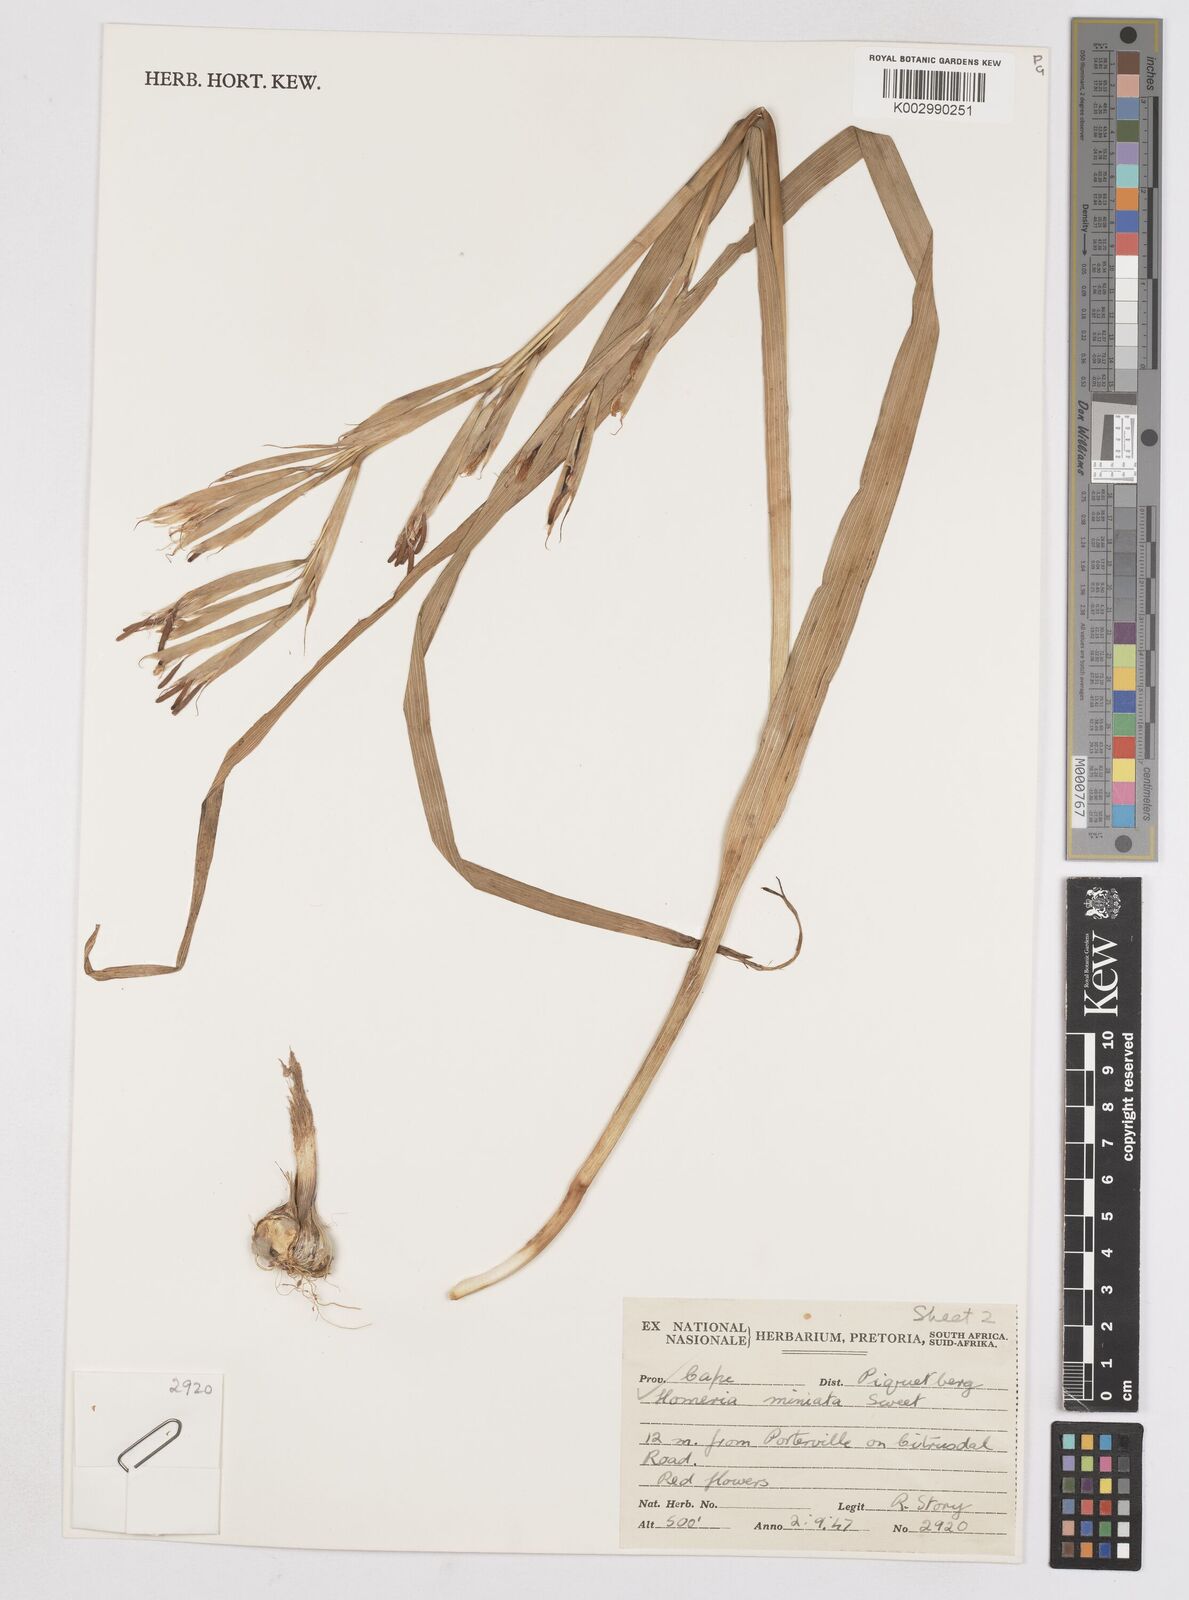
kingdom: Plantae
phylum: Tracheophyta
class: Liliopsida
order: Asparagales
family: Iridaceae
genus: Moraea
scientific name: Moraea miniata
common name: Two-leaf cape-tulip
